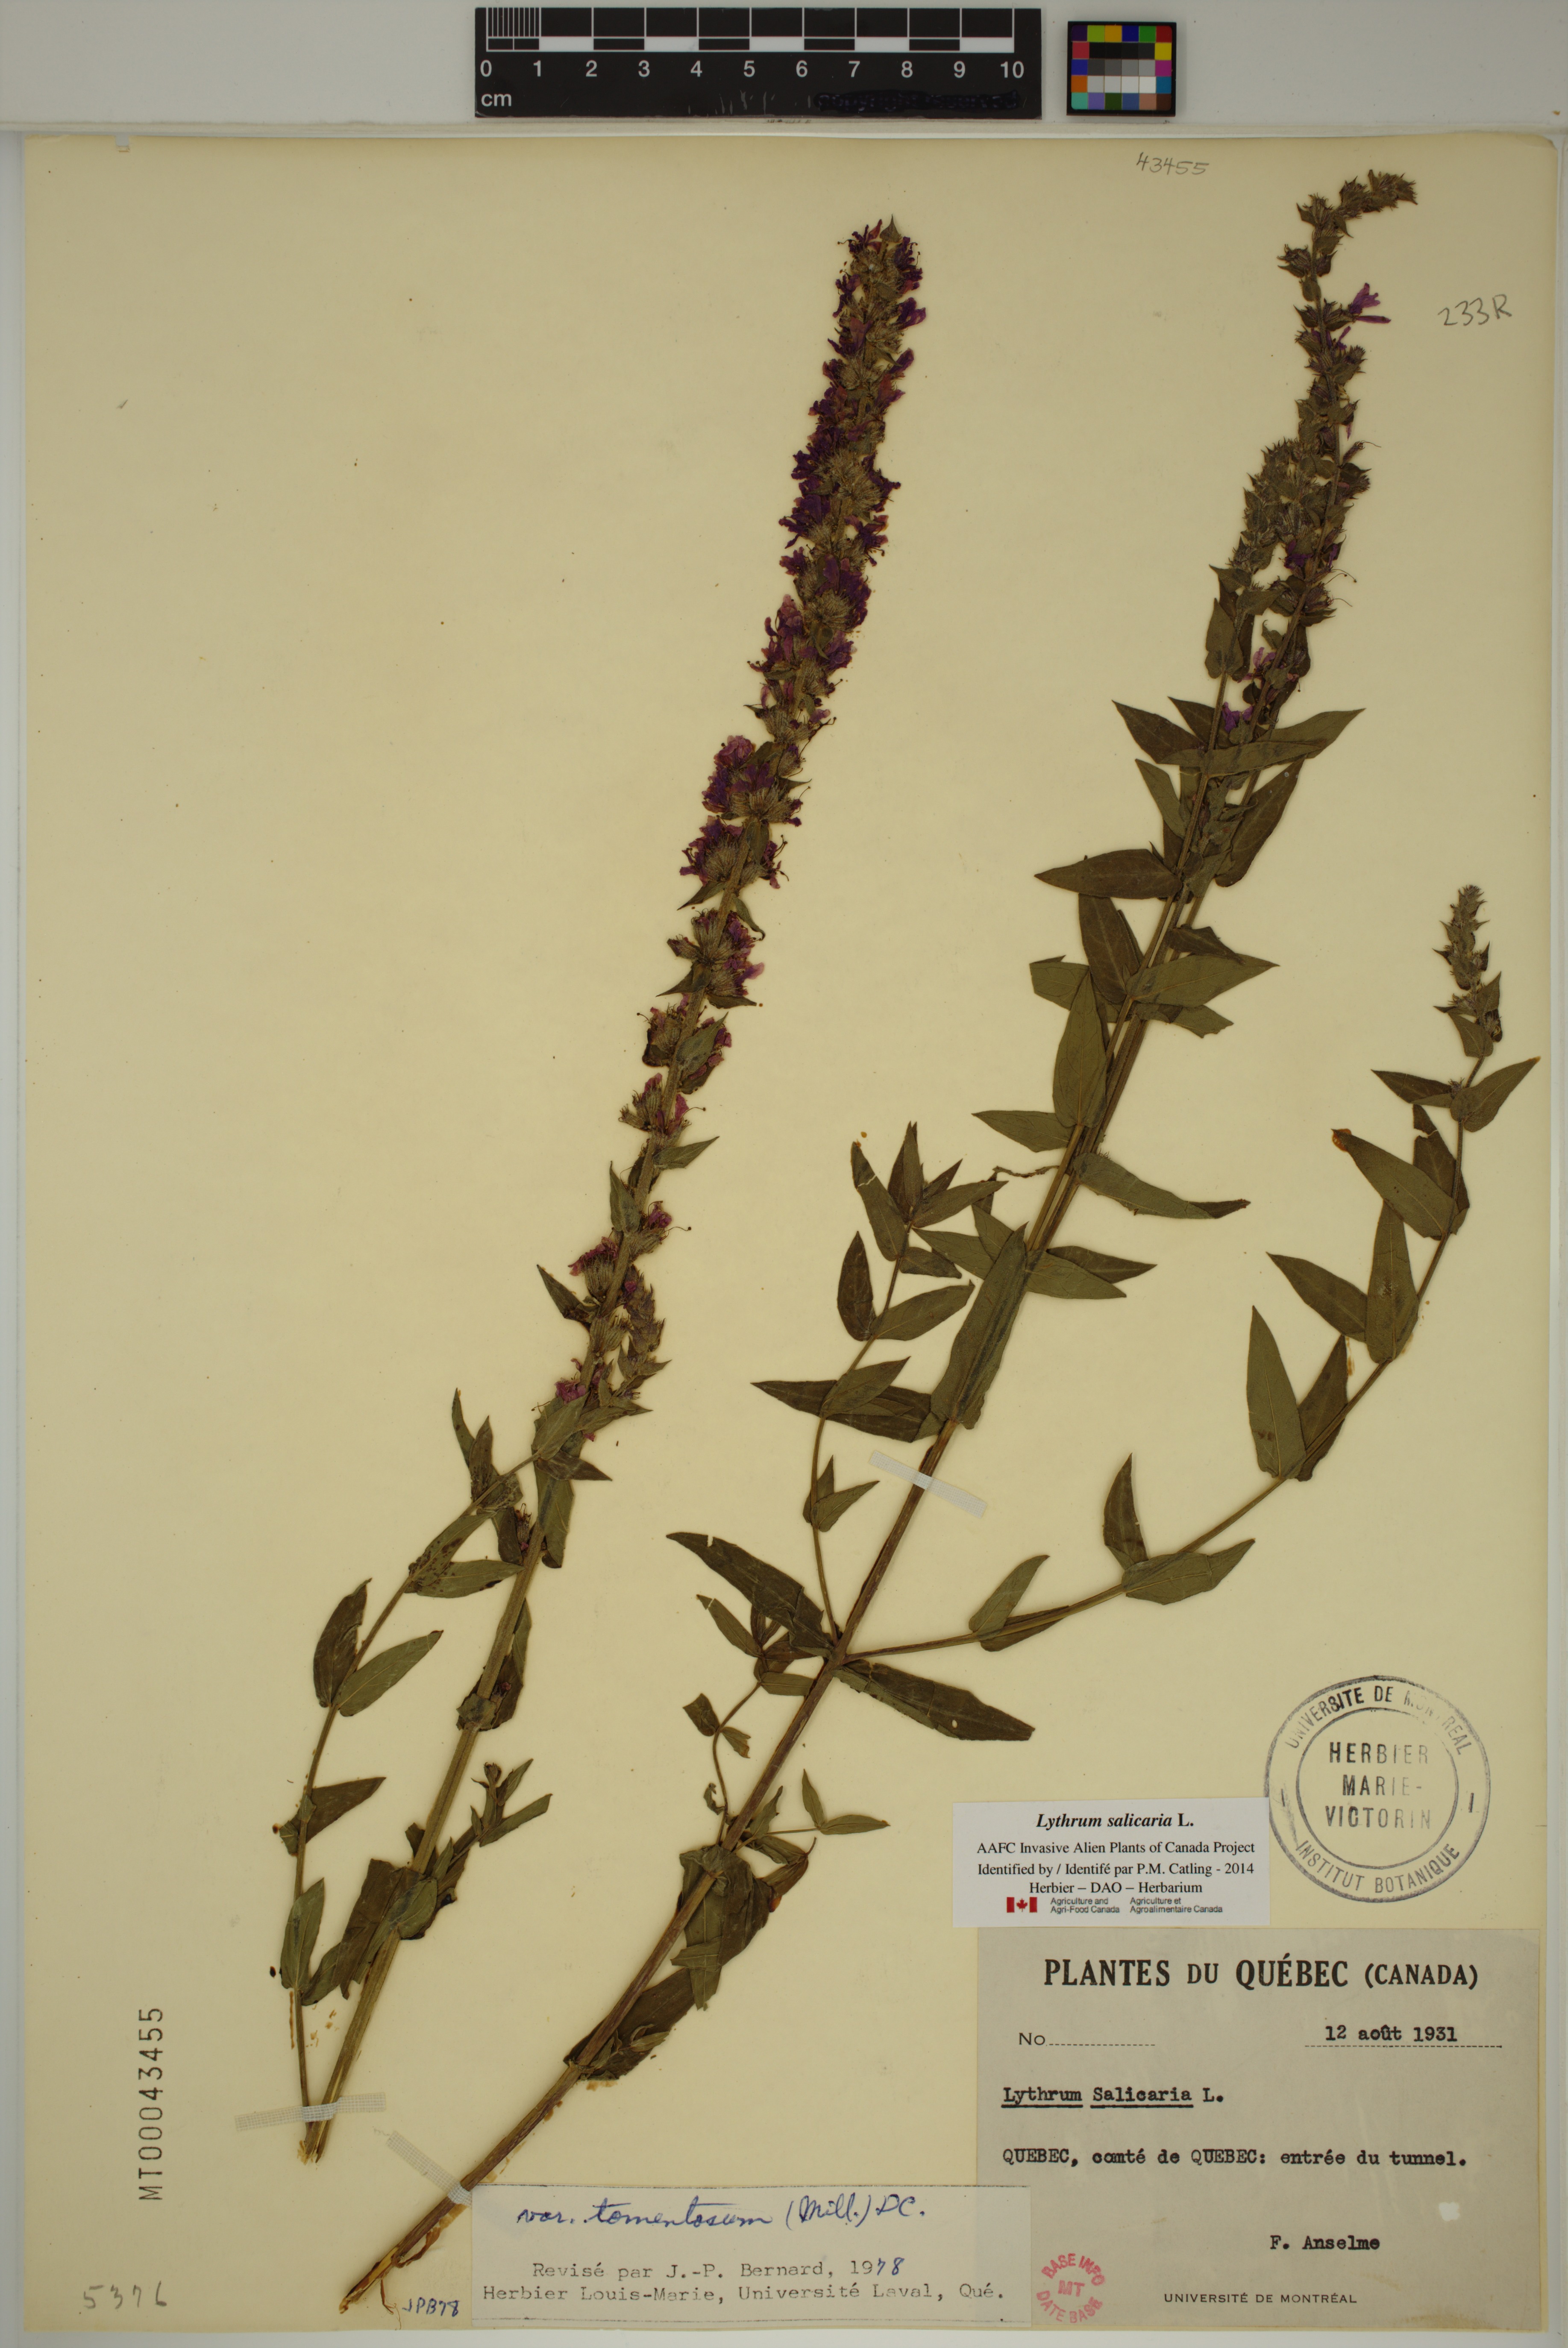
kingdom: Plantae
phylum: Tracheophyta
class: Magnoliopsida
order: Myrtales
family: Lythraceae
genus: Lythrum
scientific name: Lythrum salicaria
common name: Purple loosestrife
